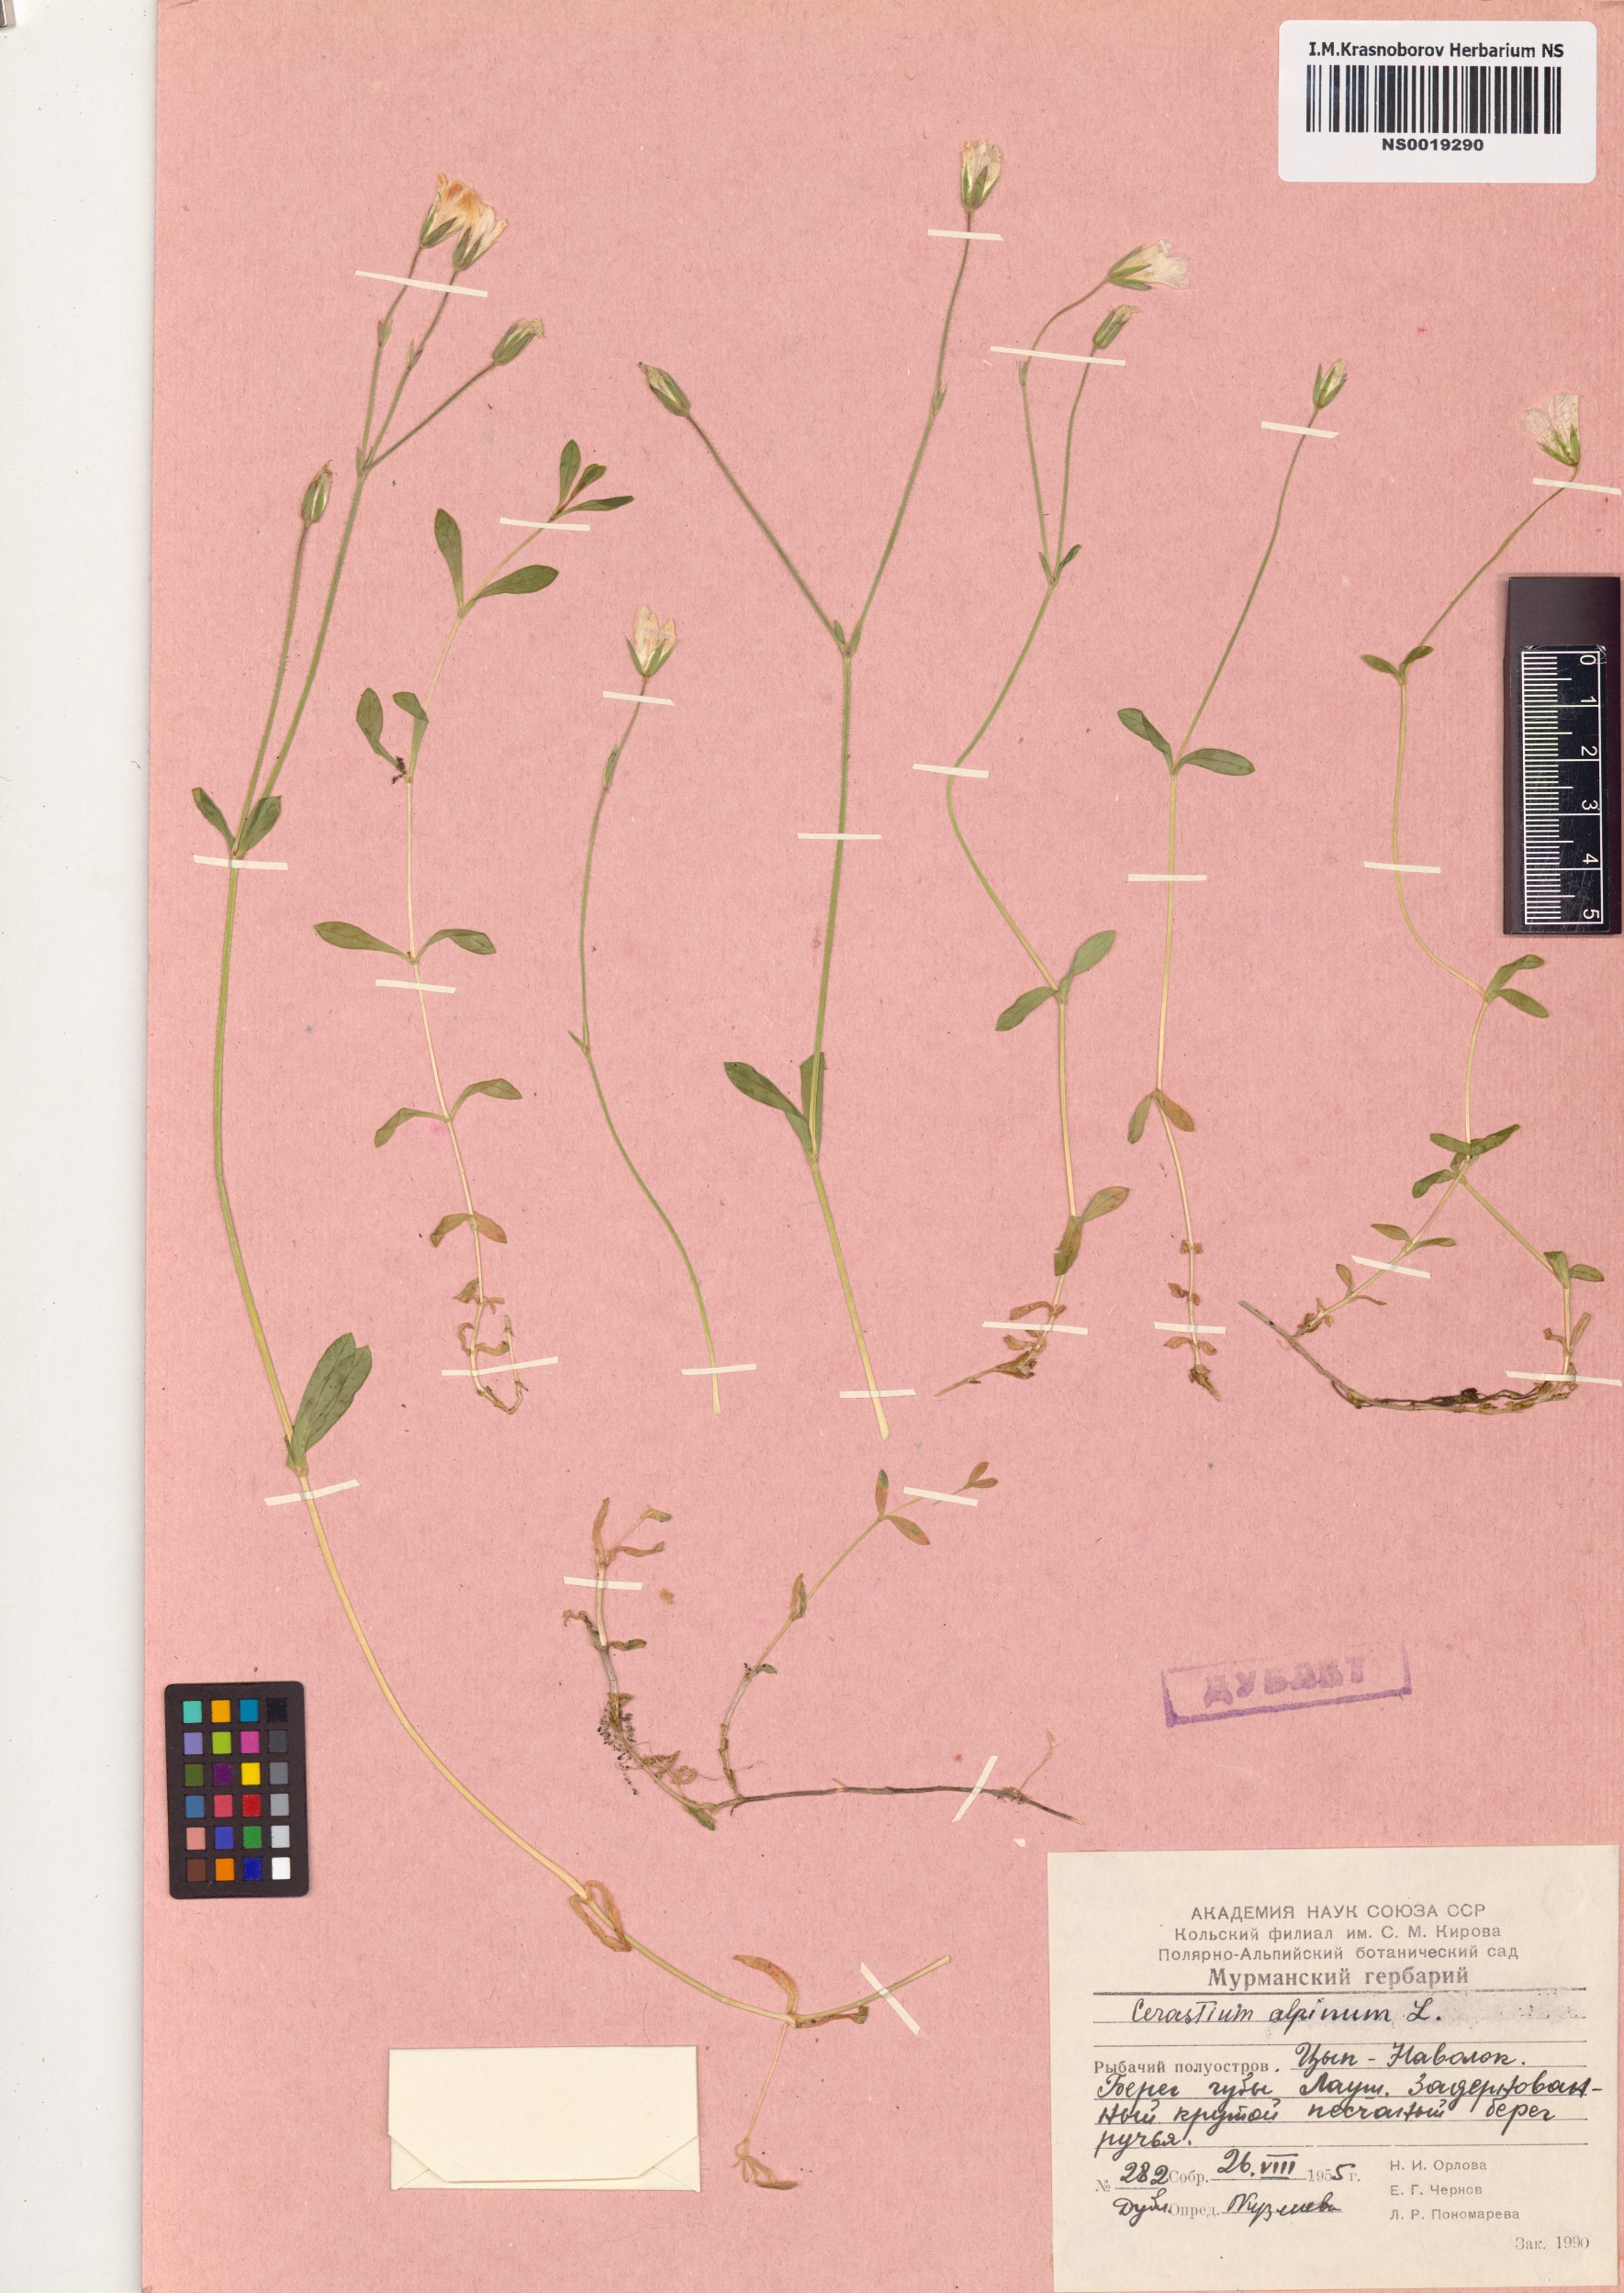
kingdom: Plantae
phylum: Tracheophyta
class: Magnoliopsida
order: Caryophyllales
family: Caryophyllaceae
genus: Cerastium
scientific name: Cerastium alpinum
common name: Alpine mouse-ear
